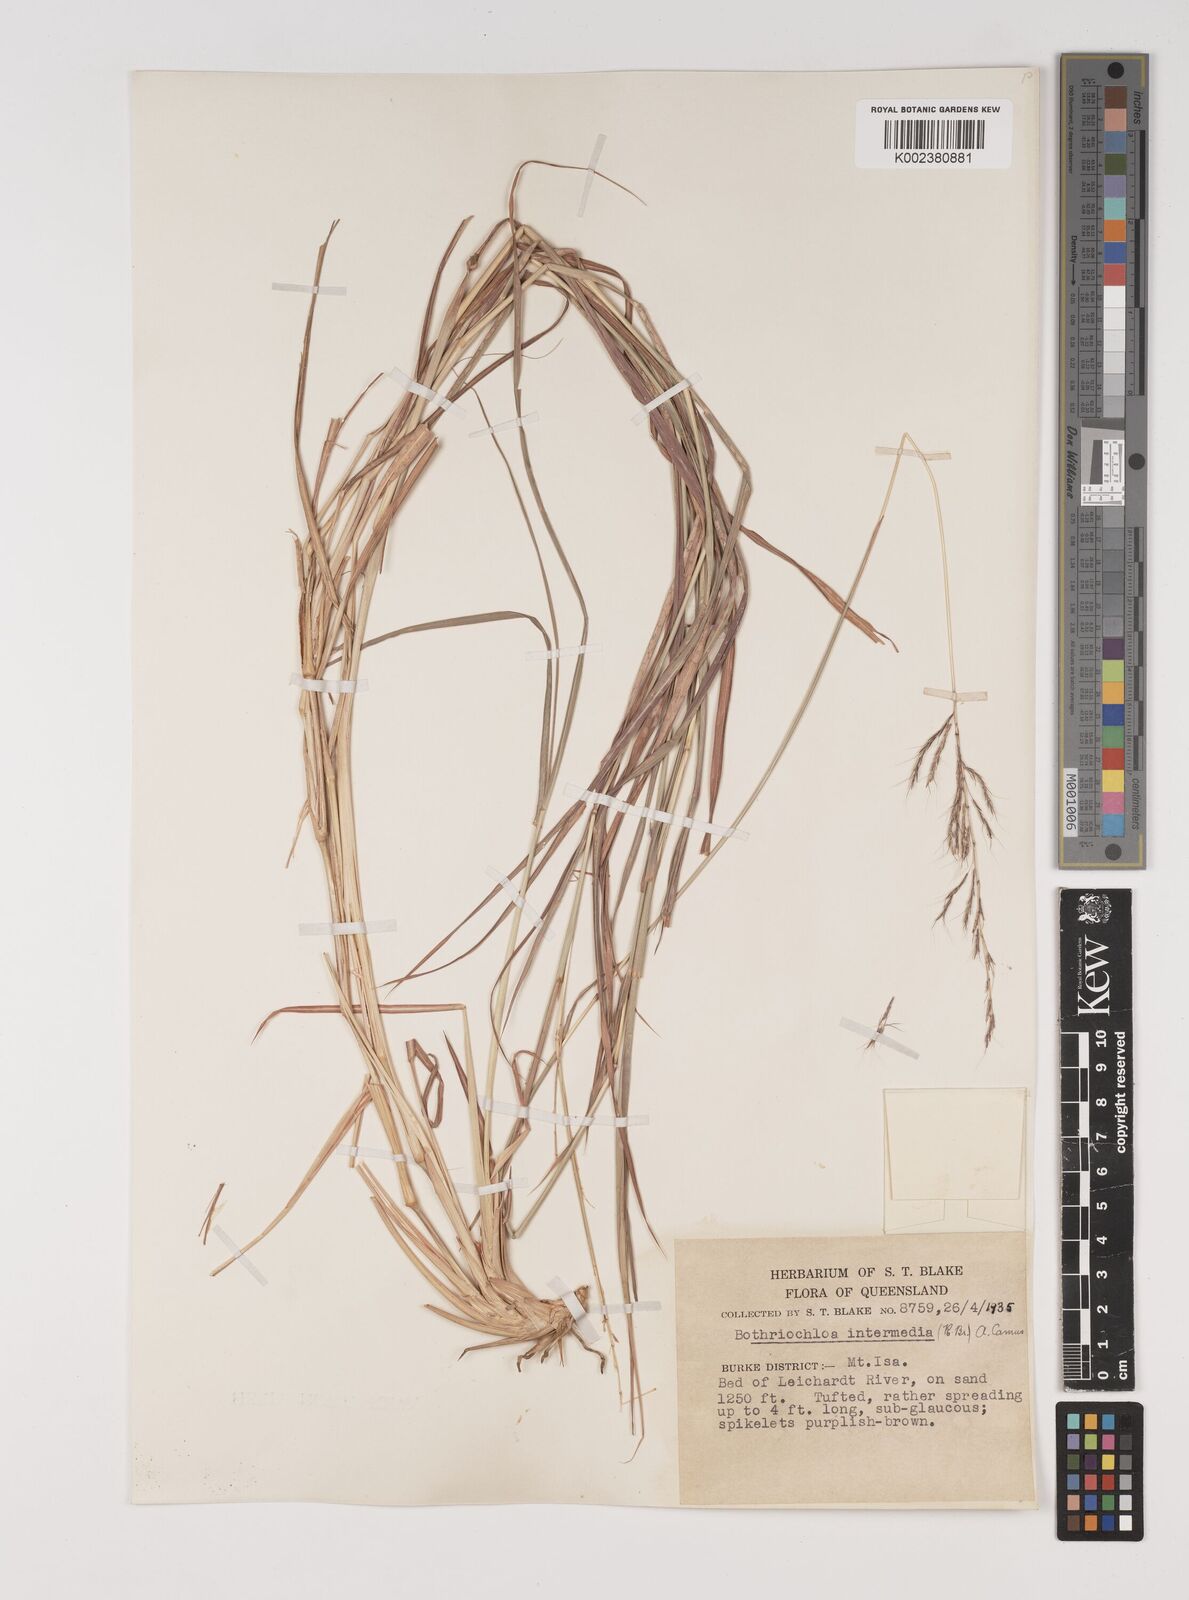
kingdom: Plantae
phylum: Tracheophyta
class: Liliopsida
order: Poales
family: Poaceae
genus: Bothriochloa
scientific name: Bothriochloa bladhii
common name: Caucasian bluestem
